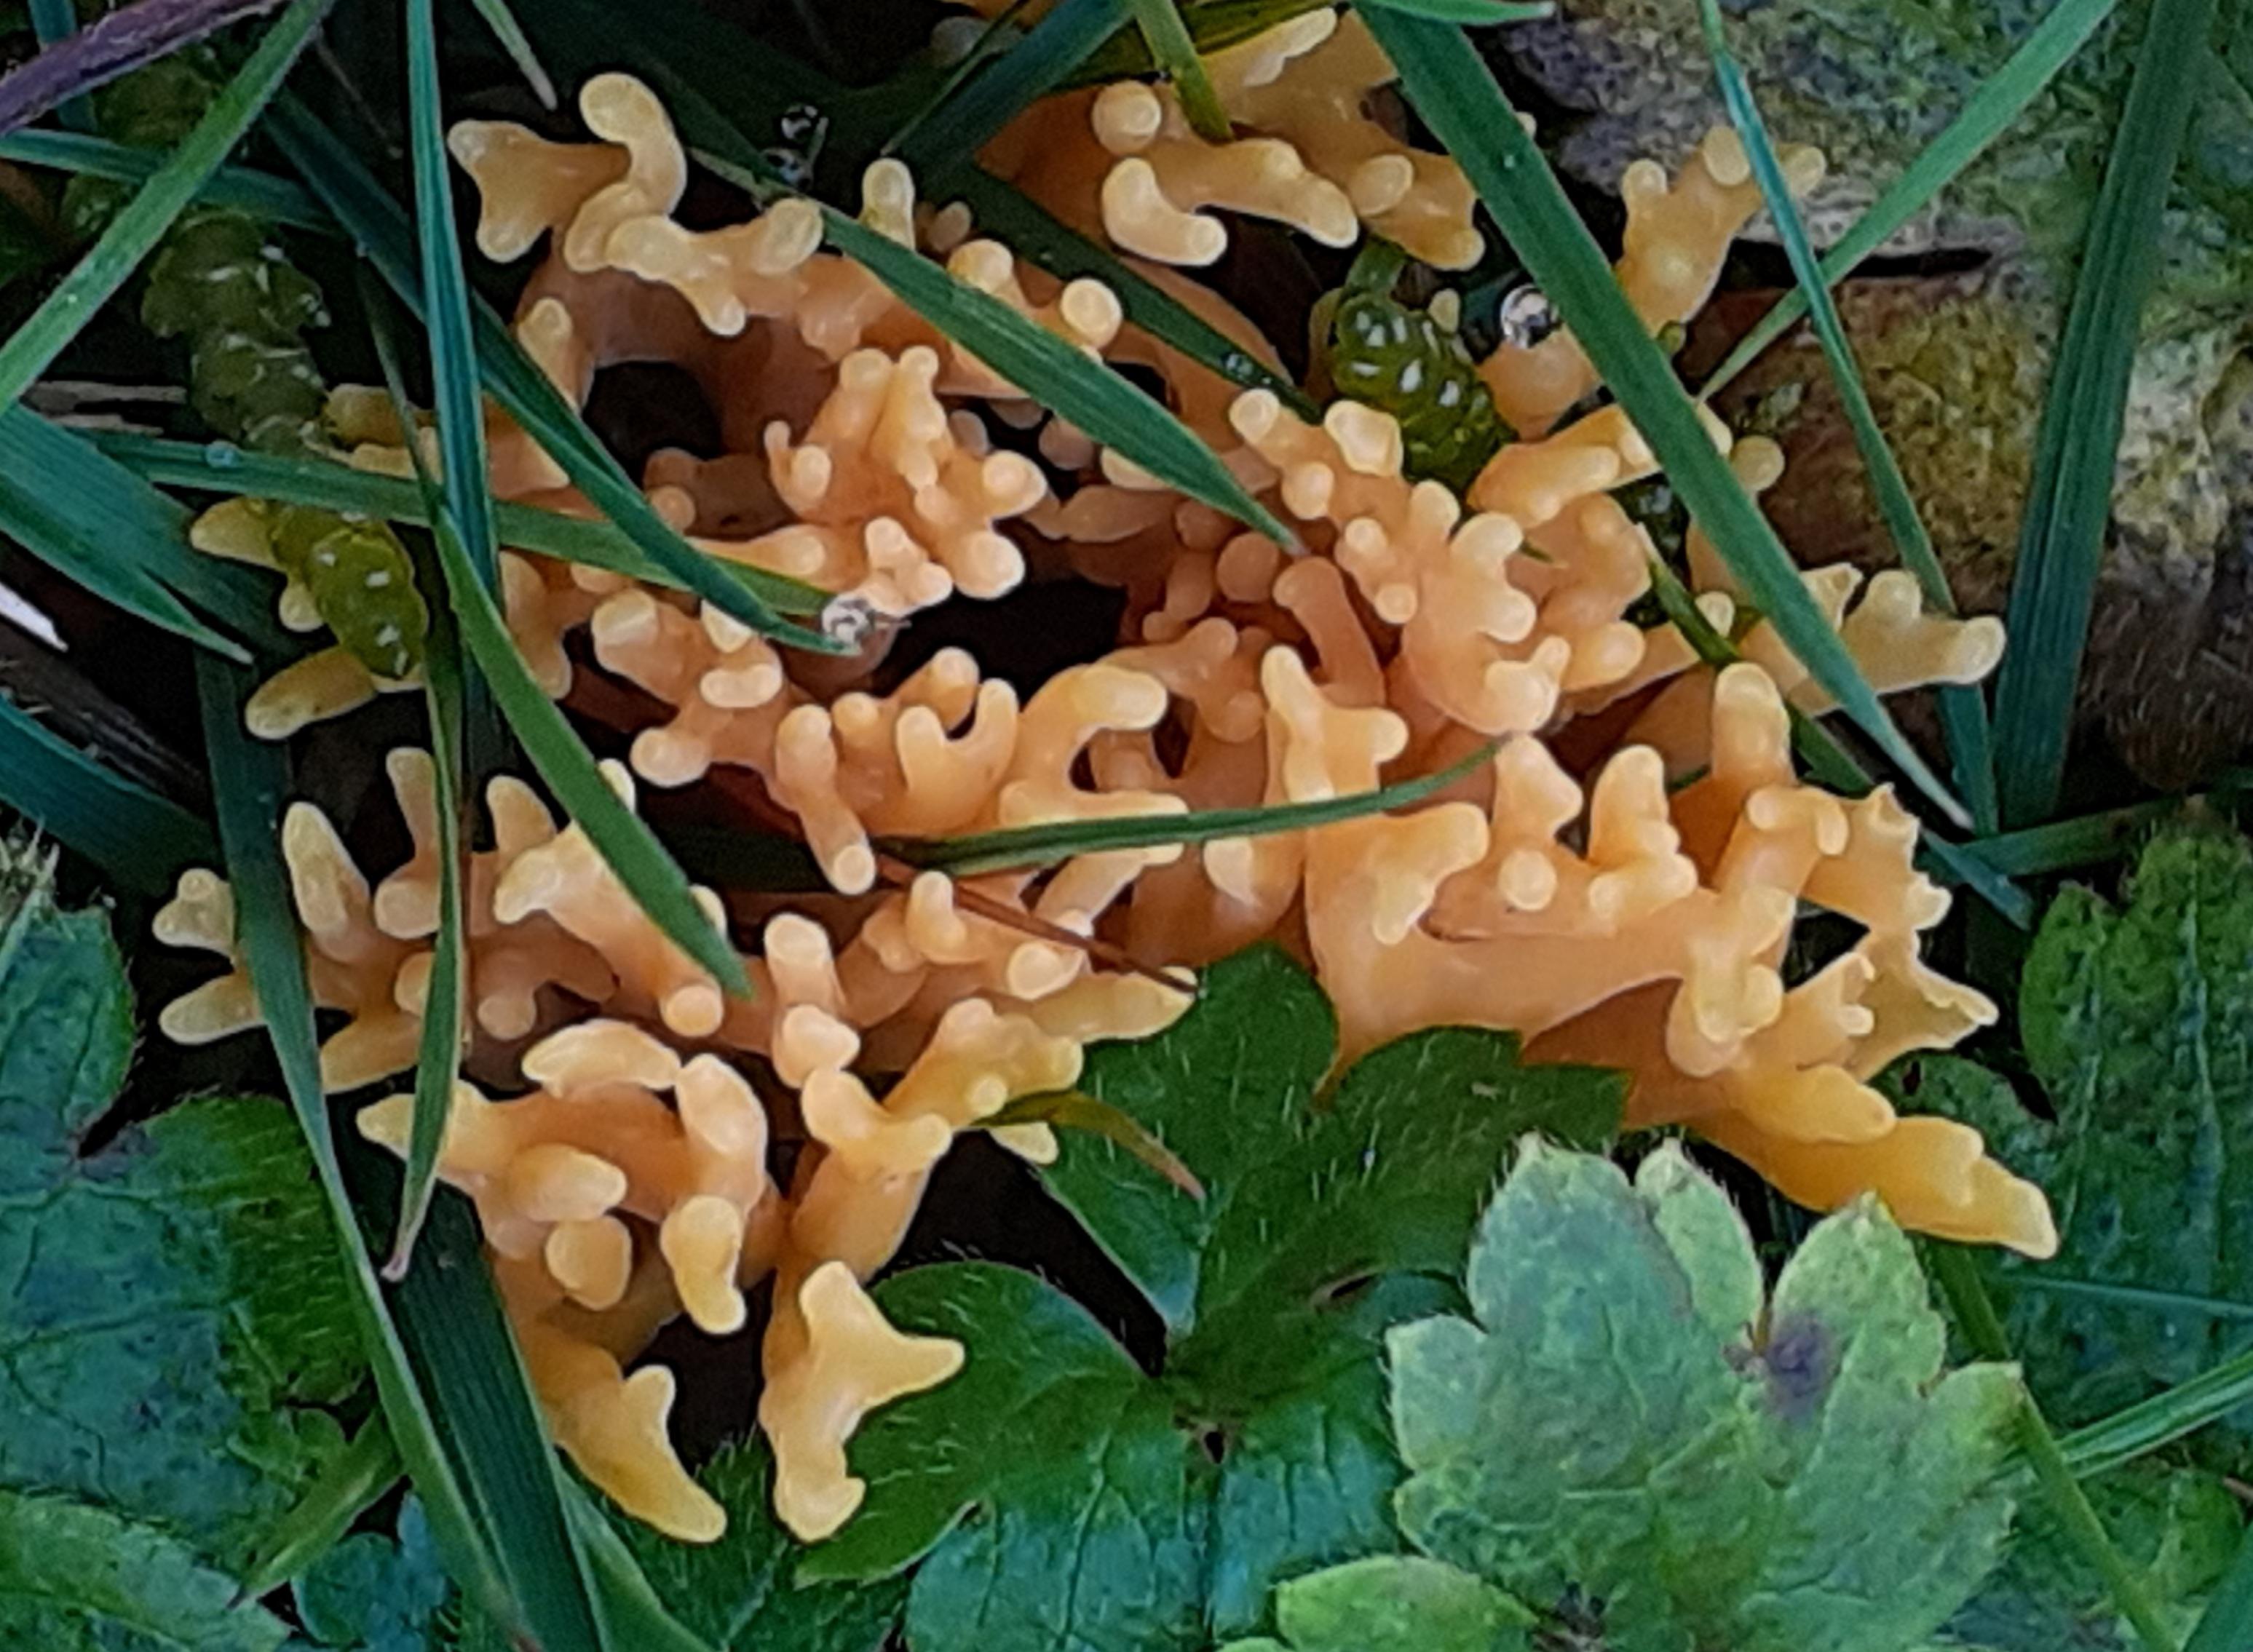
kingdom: Fungi
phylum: Basidiomycota
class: Agaricomycetes
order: Agaricales
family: Clavariaceae
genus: Clavulinopsis
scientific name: Clavulinopsis corniculata
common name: eng-køllesvamp
